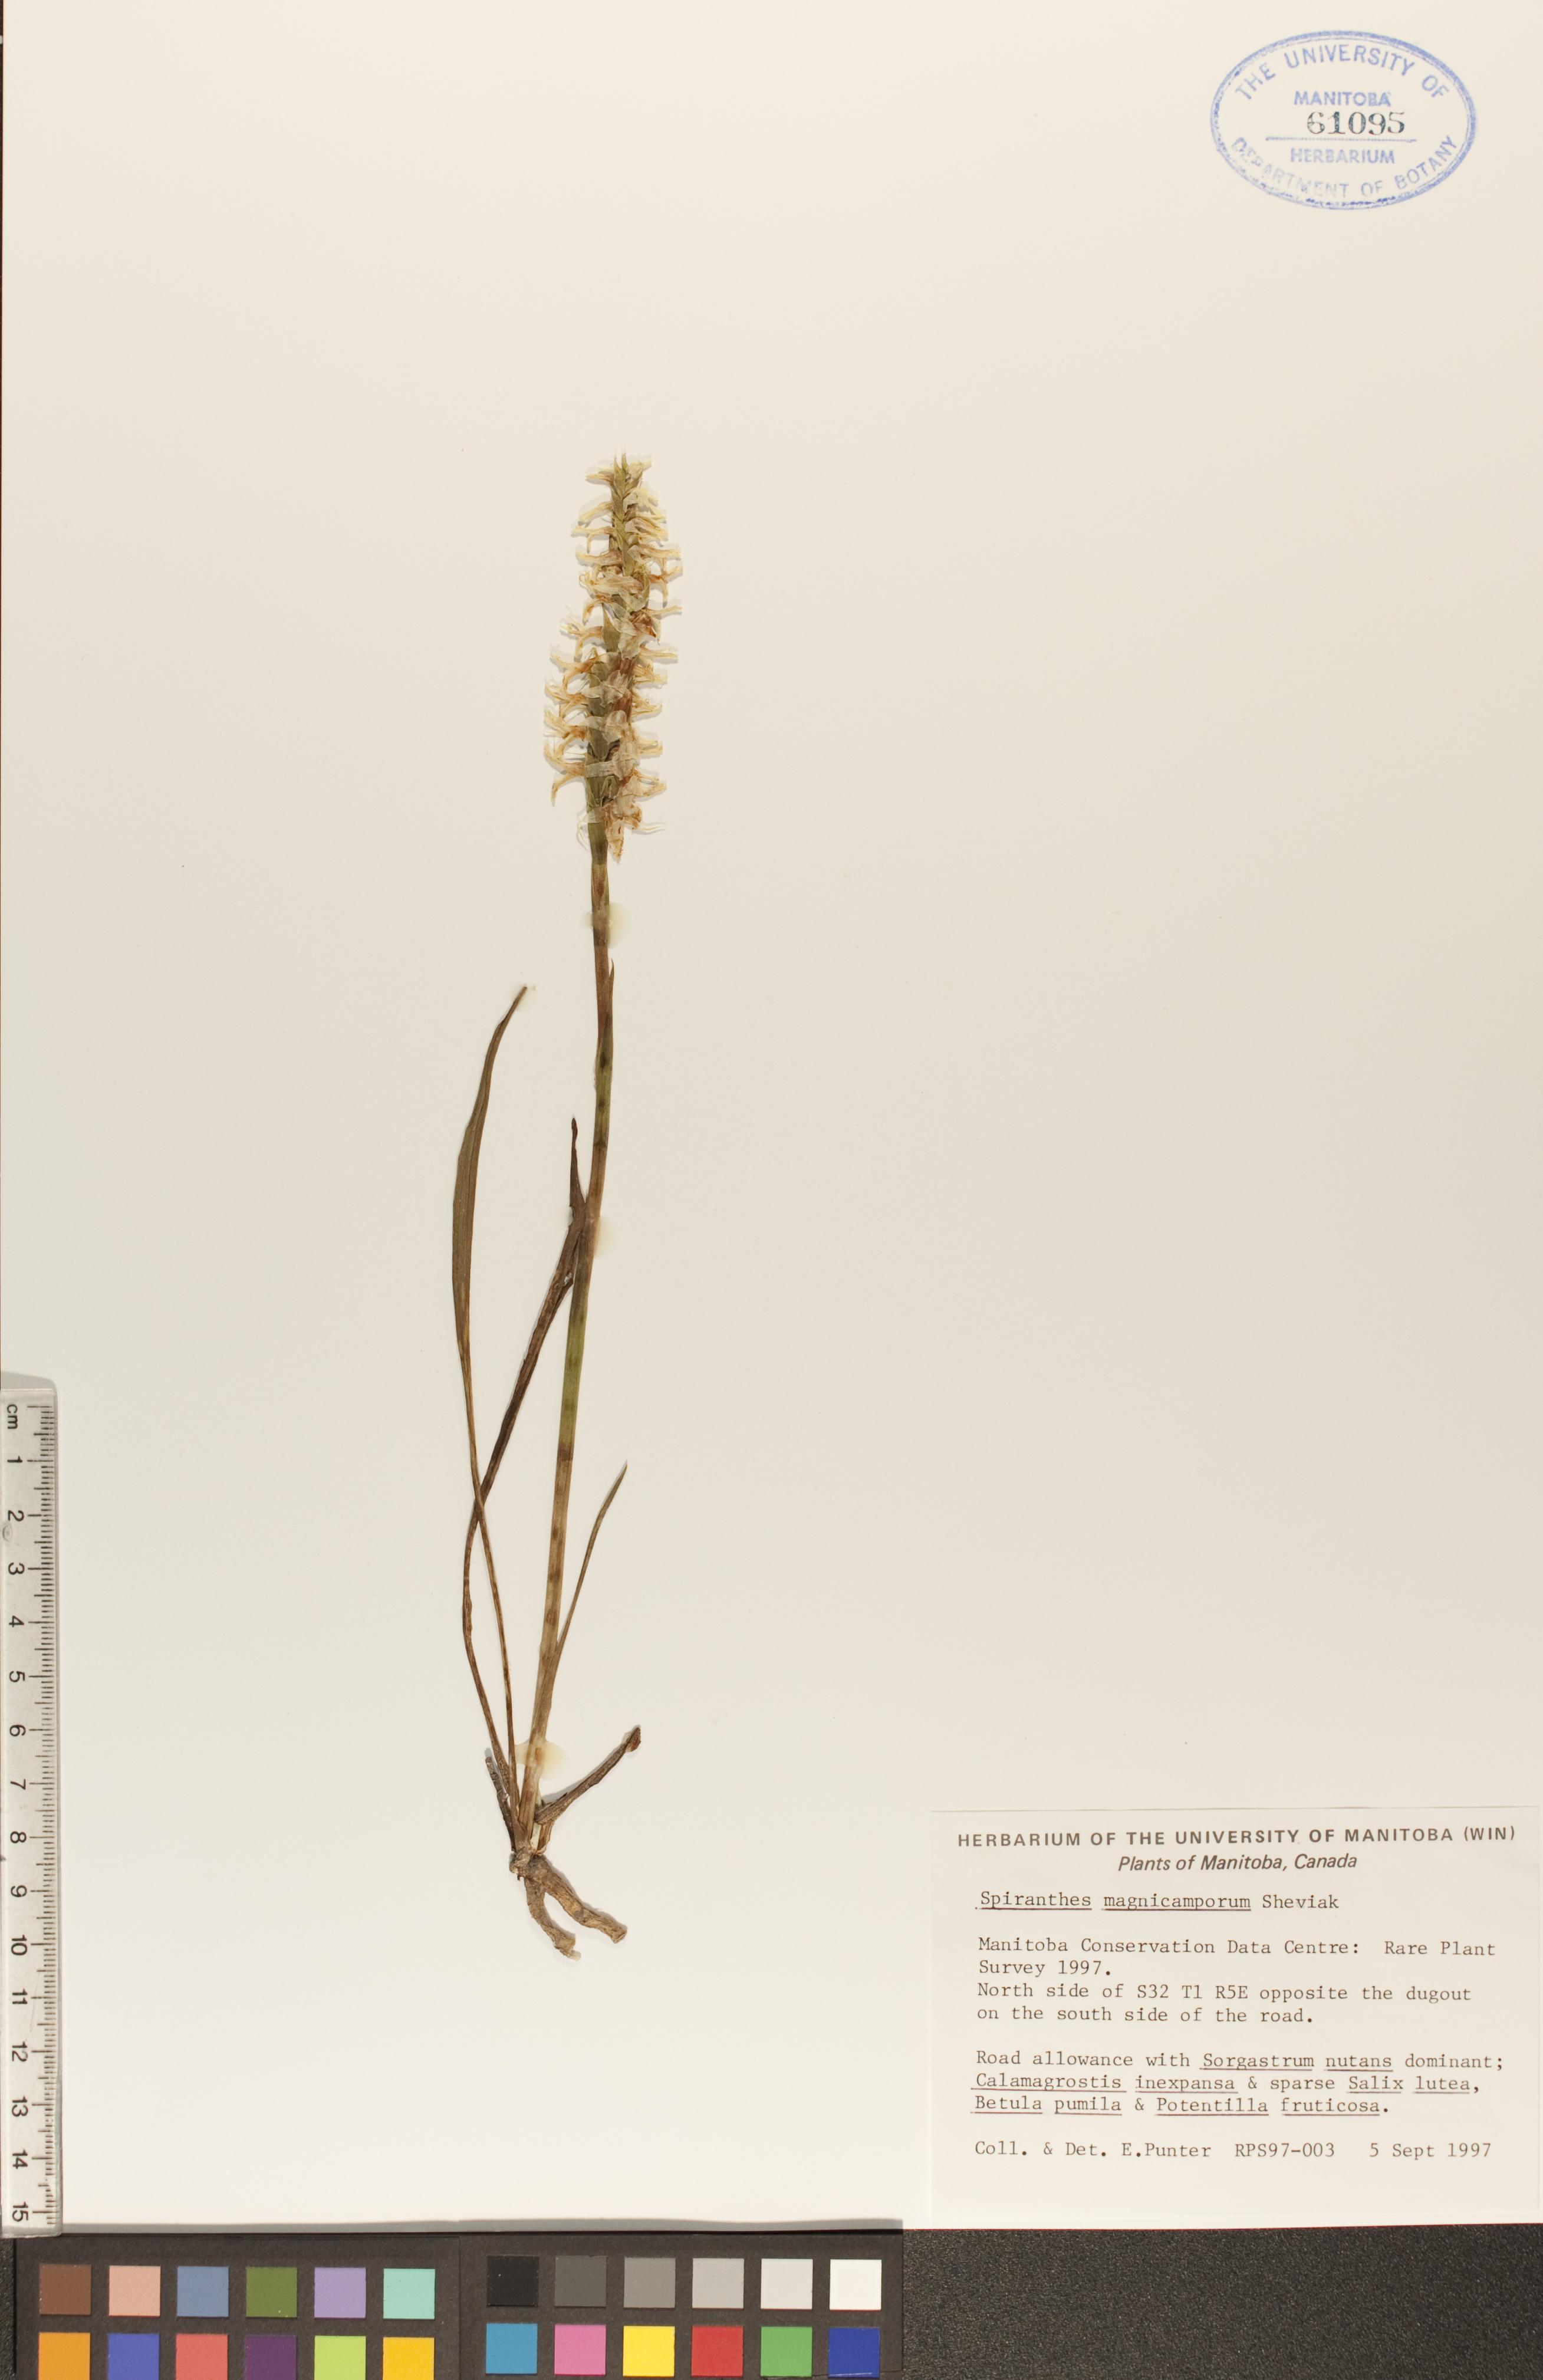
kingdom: Plantae
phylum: Tracheophyta
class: Liliopsida
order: Asparagales
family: Orchidaceae
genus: Spiranthes
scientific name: Spiranthes magnicamporum
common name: Great plains ladies'-tresses
